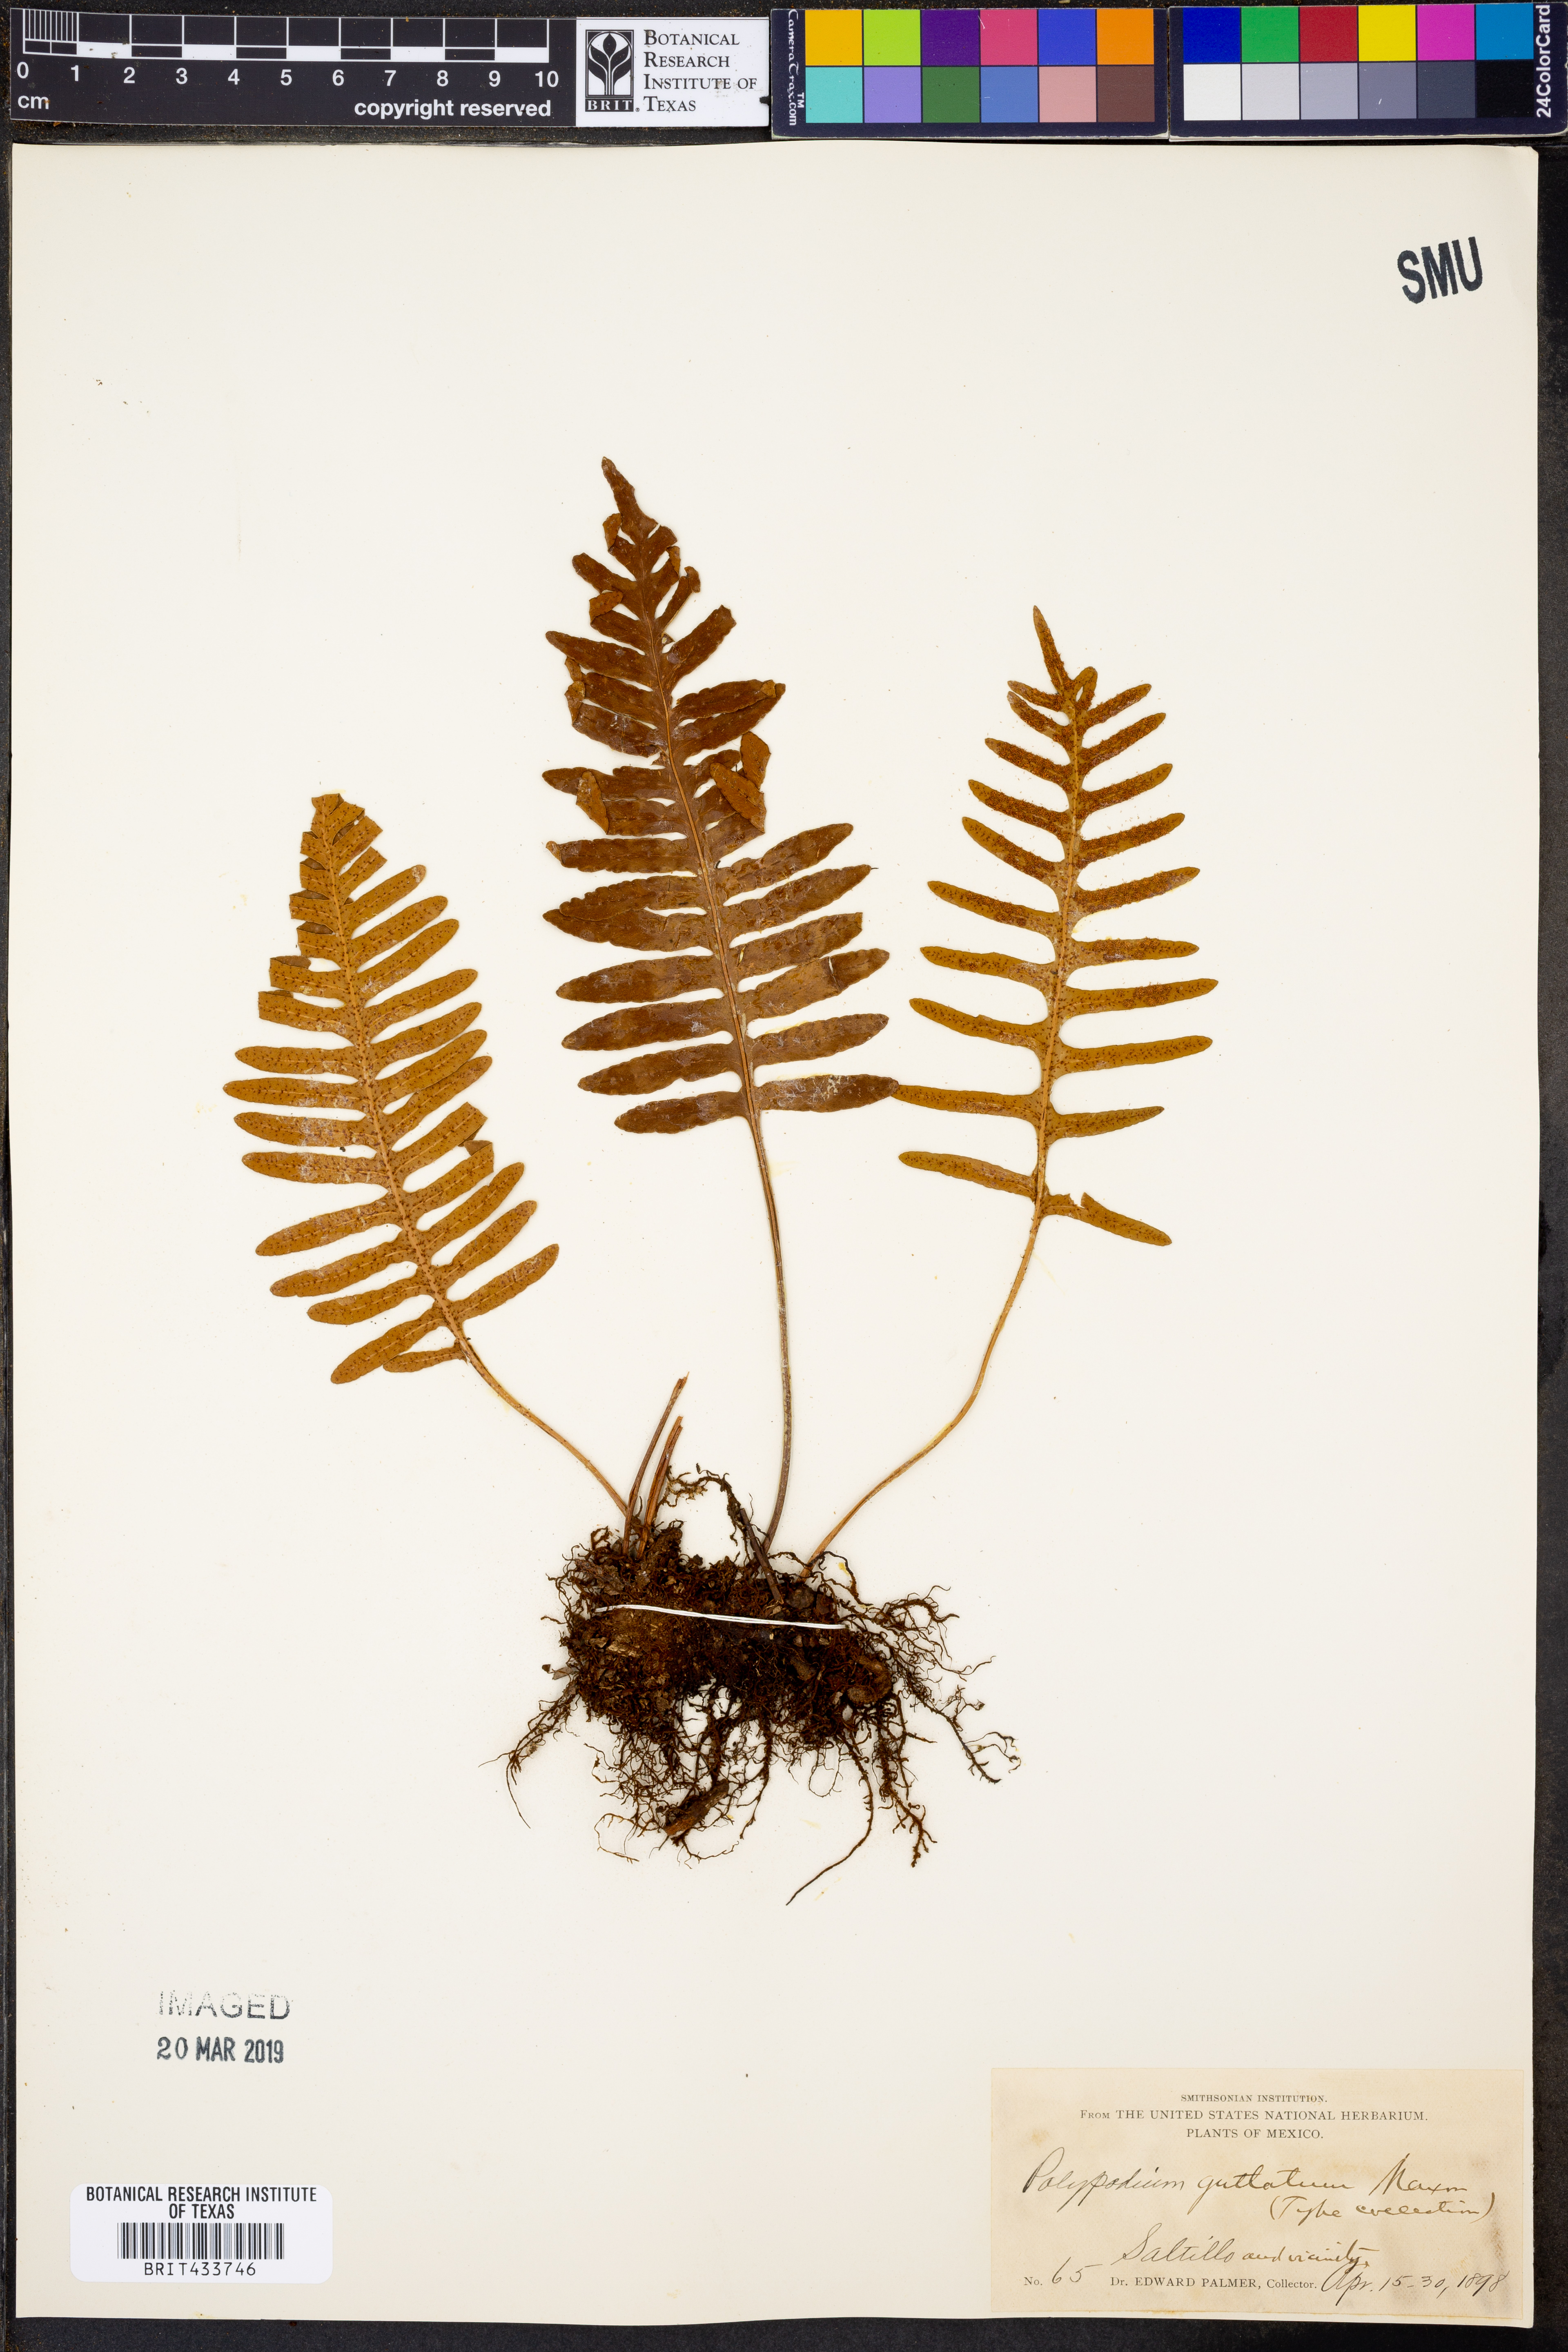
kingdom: Plantae
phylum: Tracheophyta
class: Polypodiopsida
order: Polypodiales
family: Polypodiaceae
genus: Pleopeltis
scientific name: Pleopeltis guttata
